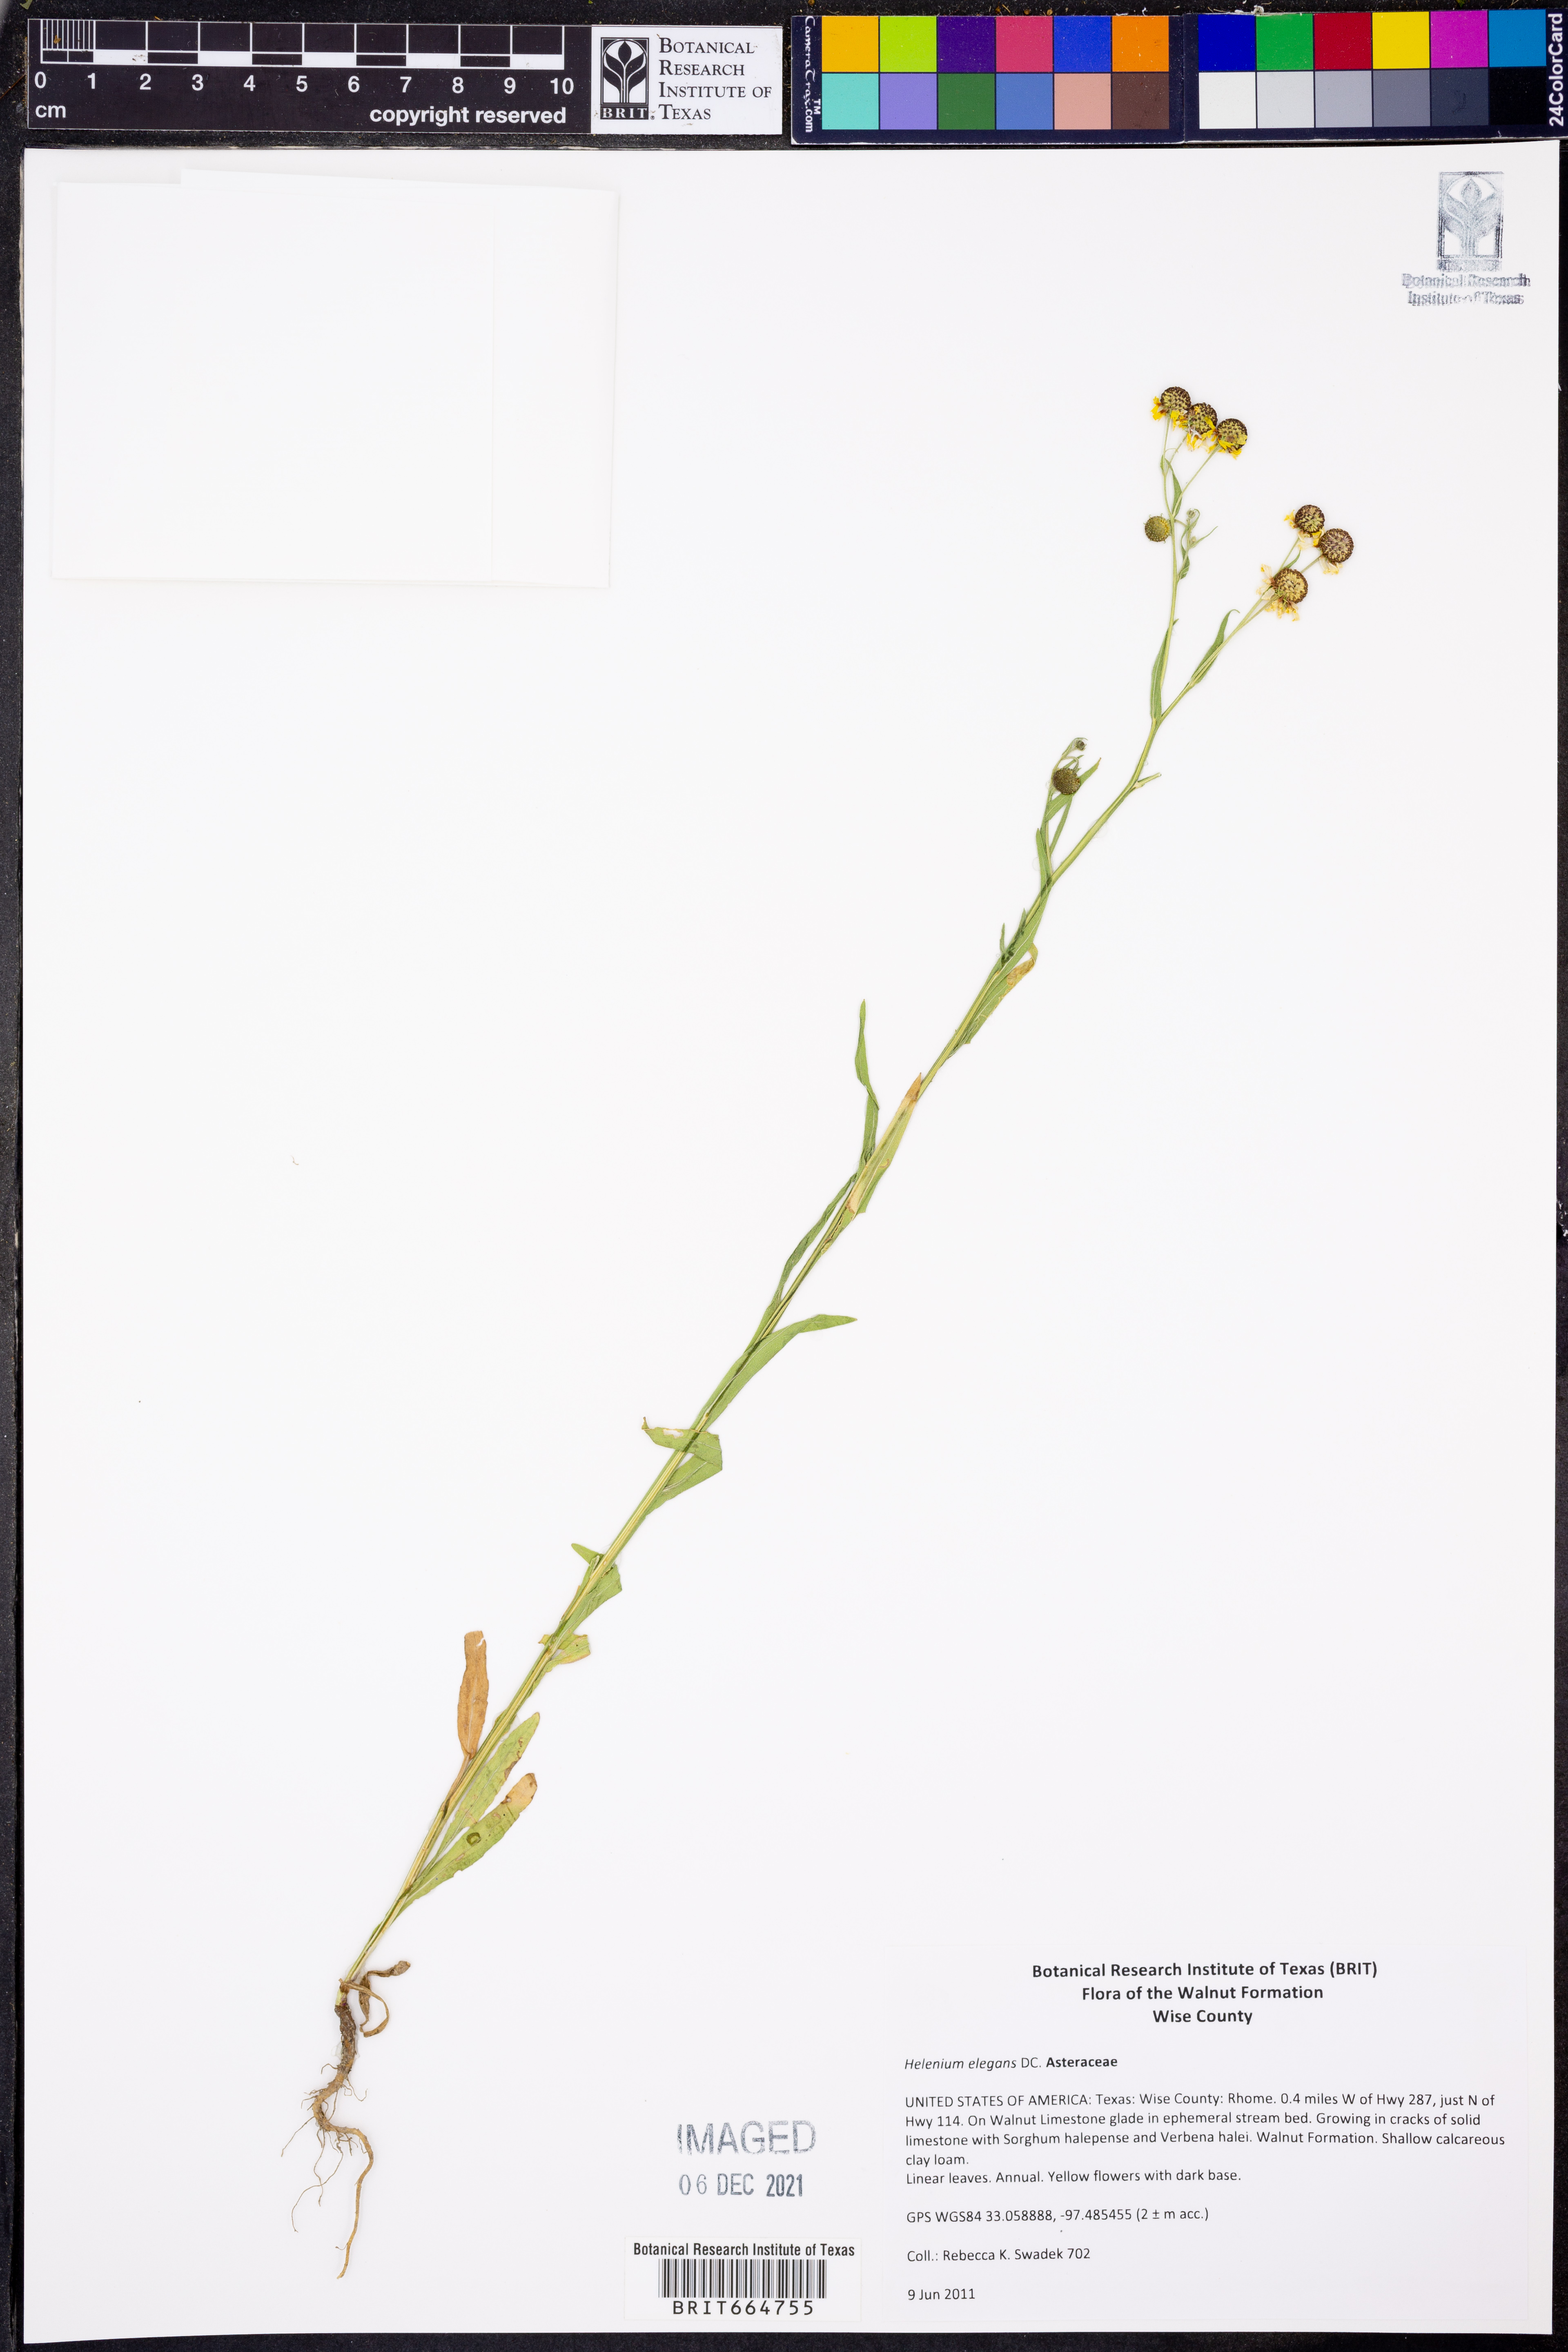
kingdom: Plantae
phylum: Tracheophyta
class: Magnoliopsida
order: Asterales
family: Asteraceae
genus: Helenium
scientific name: Helenium elegans
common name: Pretty sneezeweed
